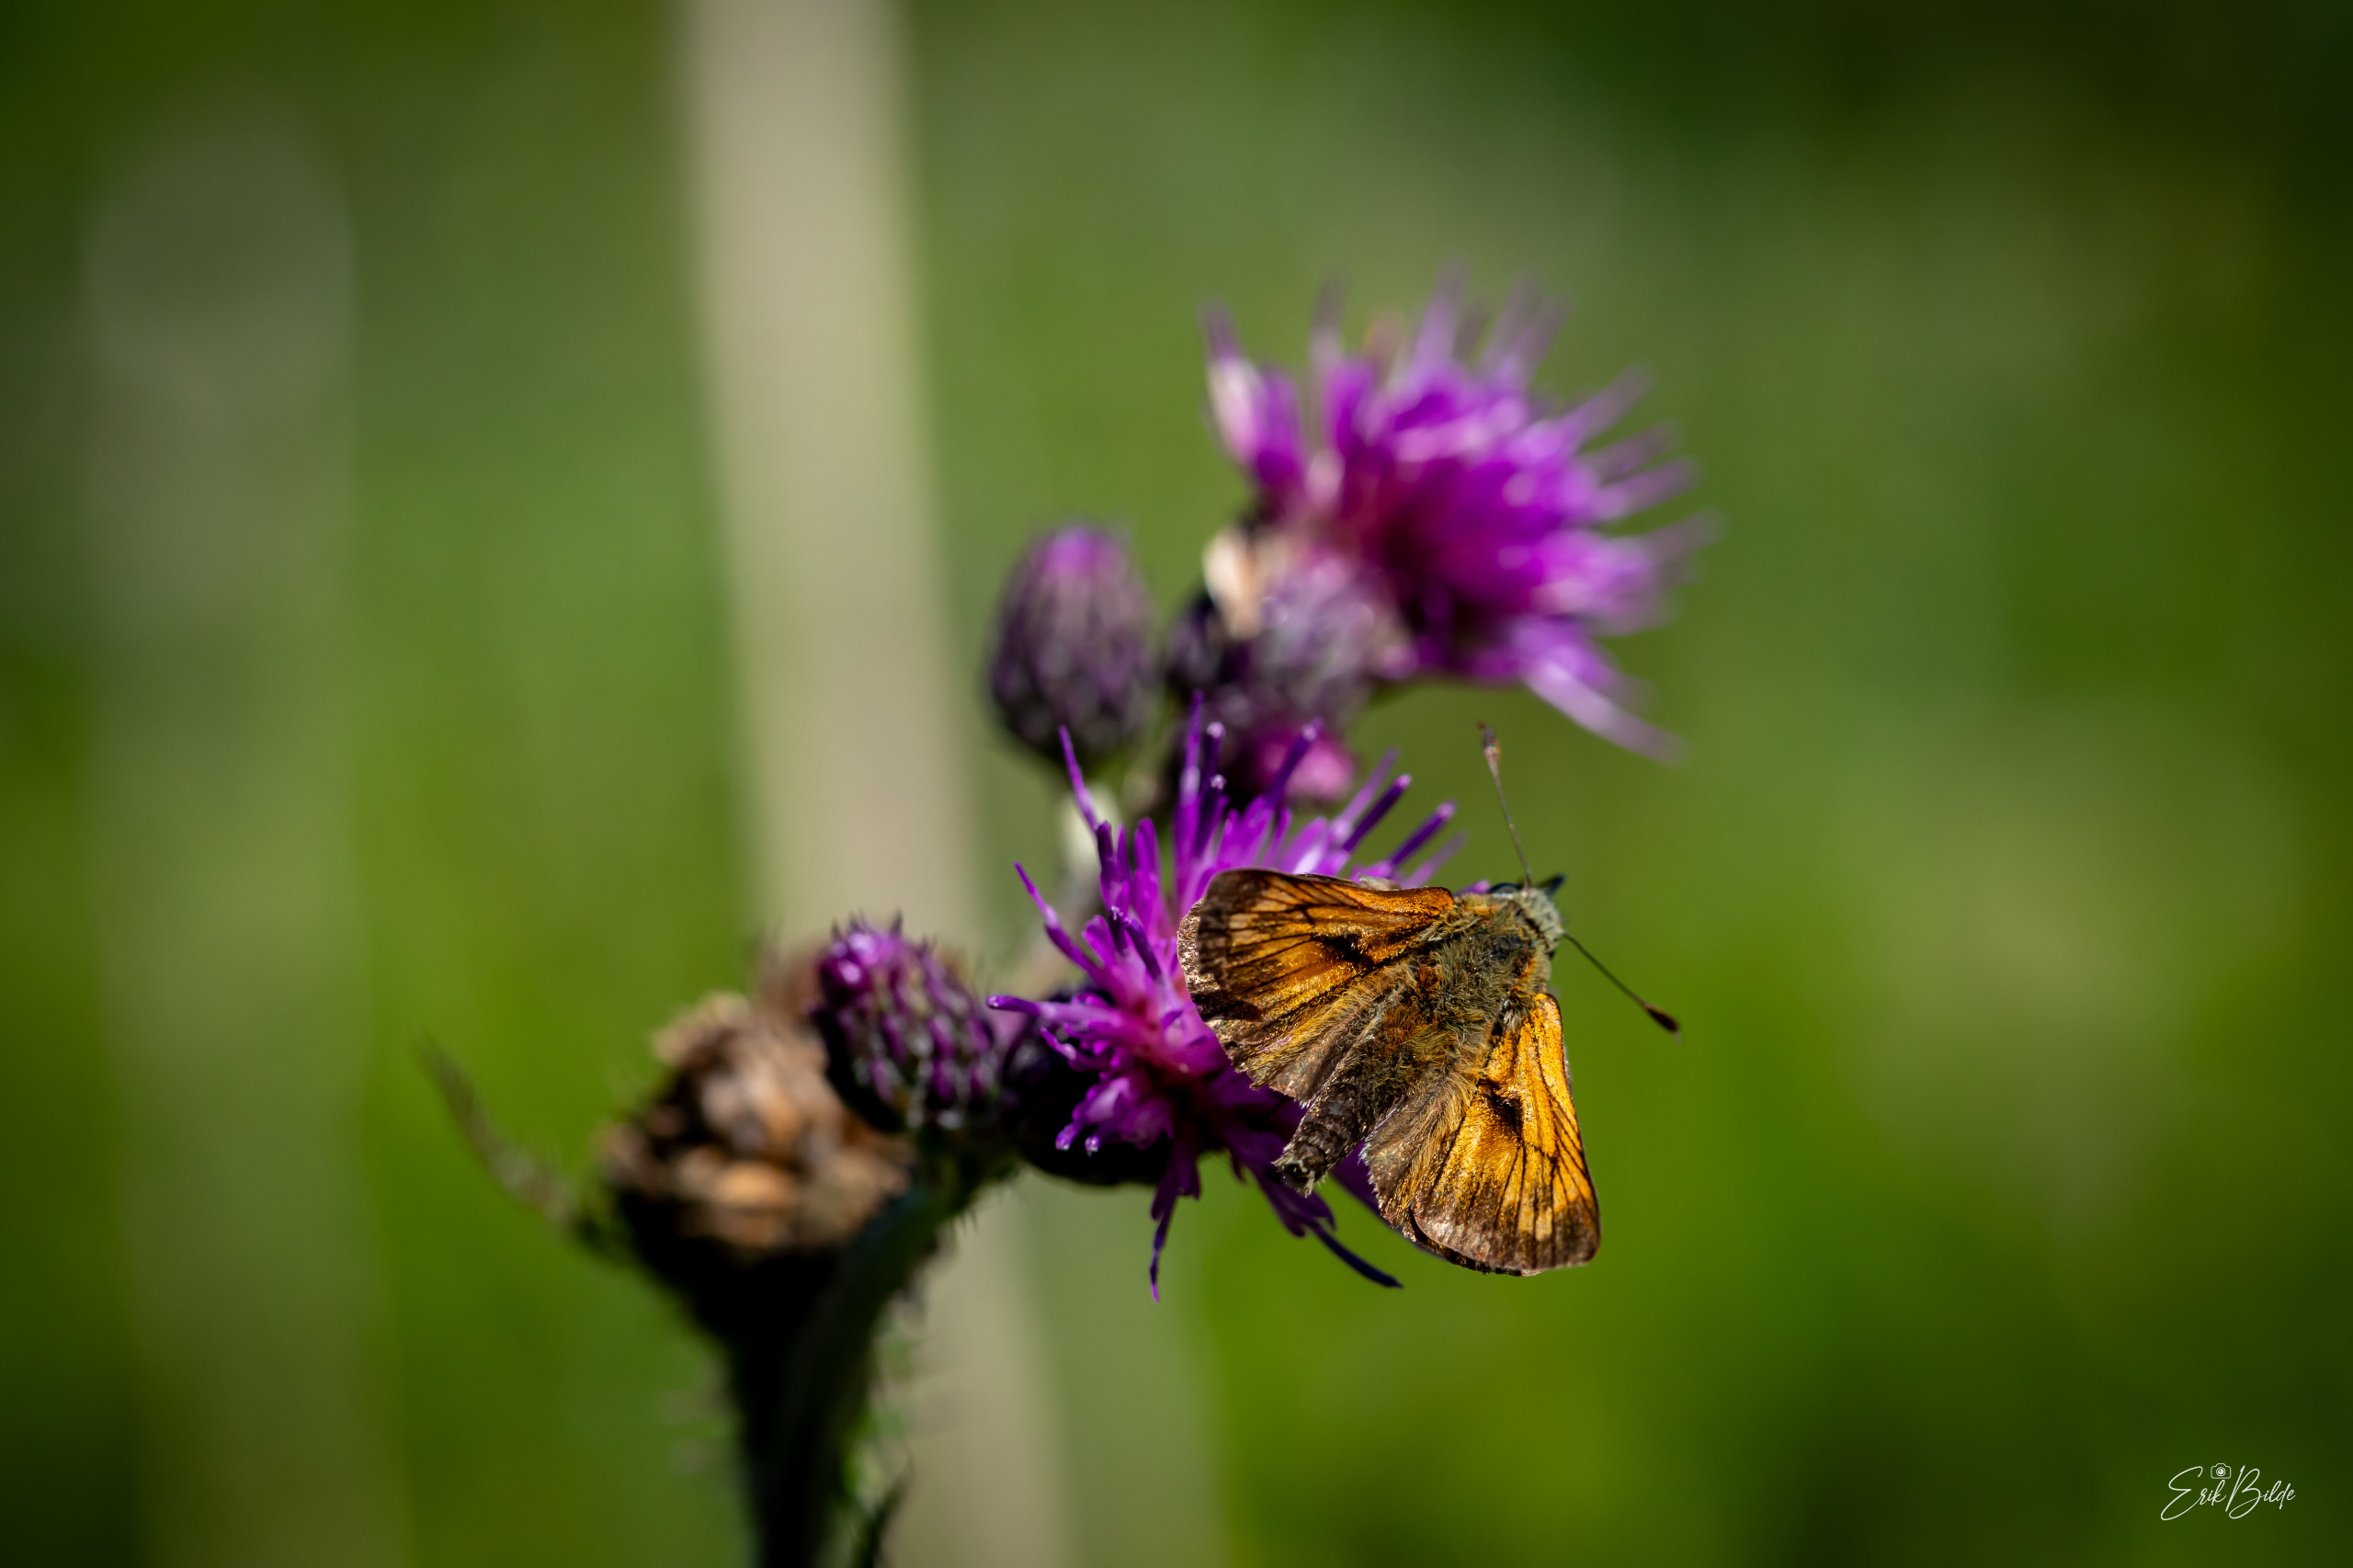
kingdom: Animalia
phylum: Arthropoda
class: Insecta
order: Lepidoptera
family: Hesperiidae
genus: Ochlodes
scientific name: Ochlodes venata
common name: Stor bredpande
